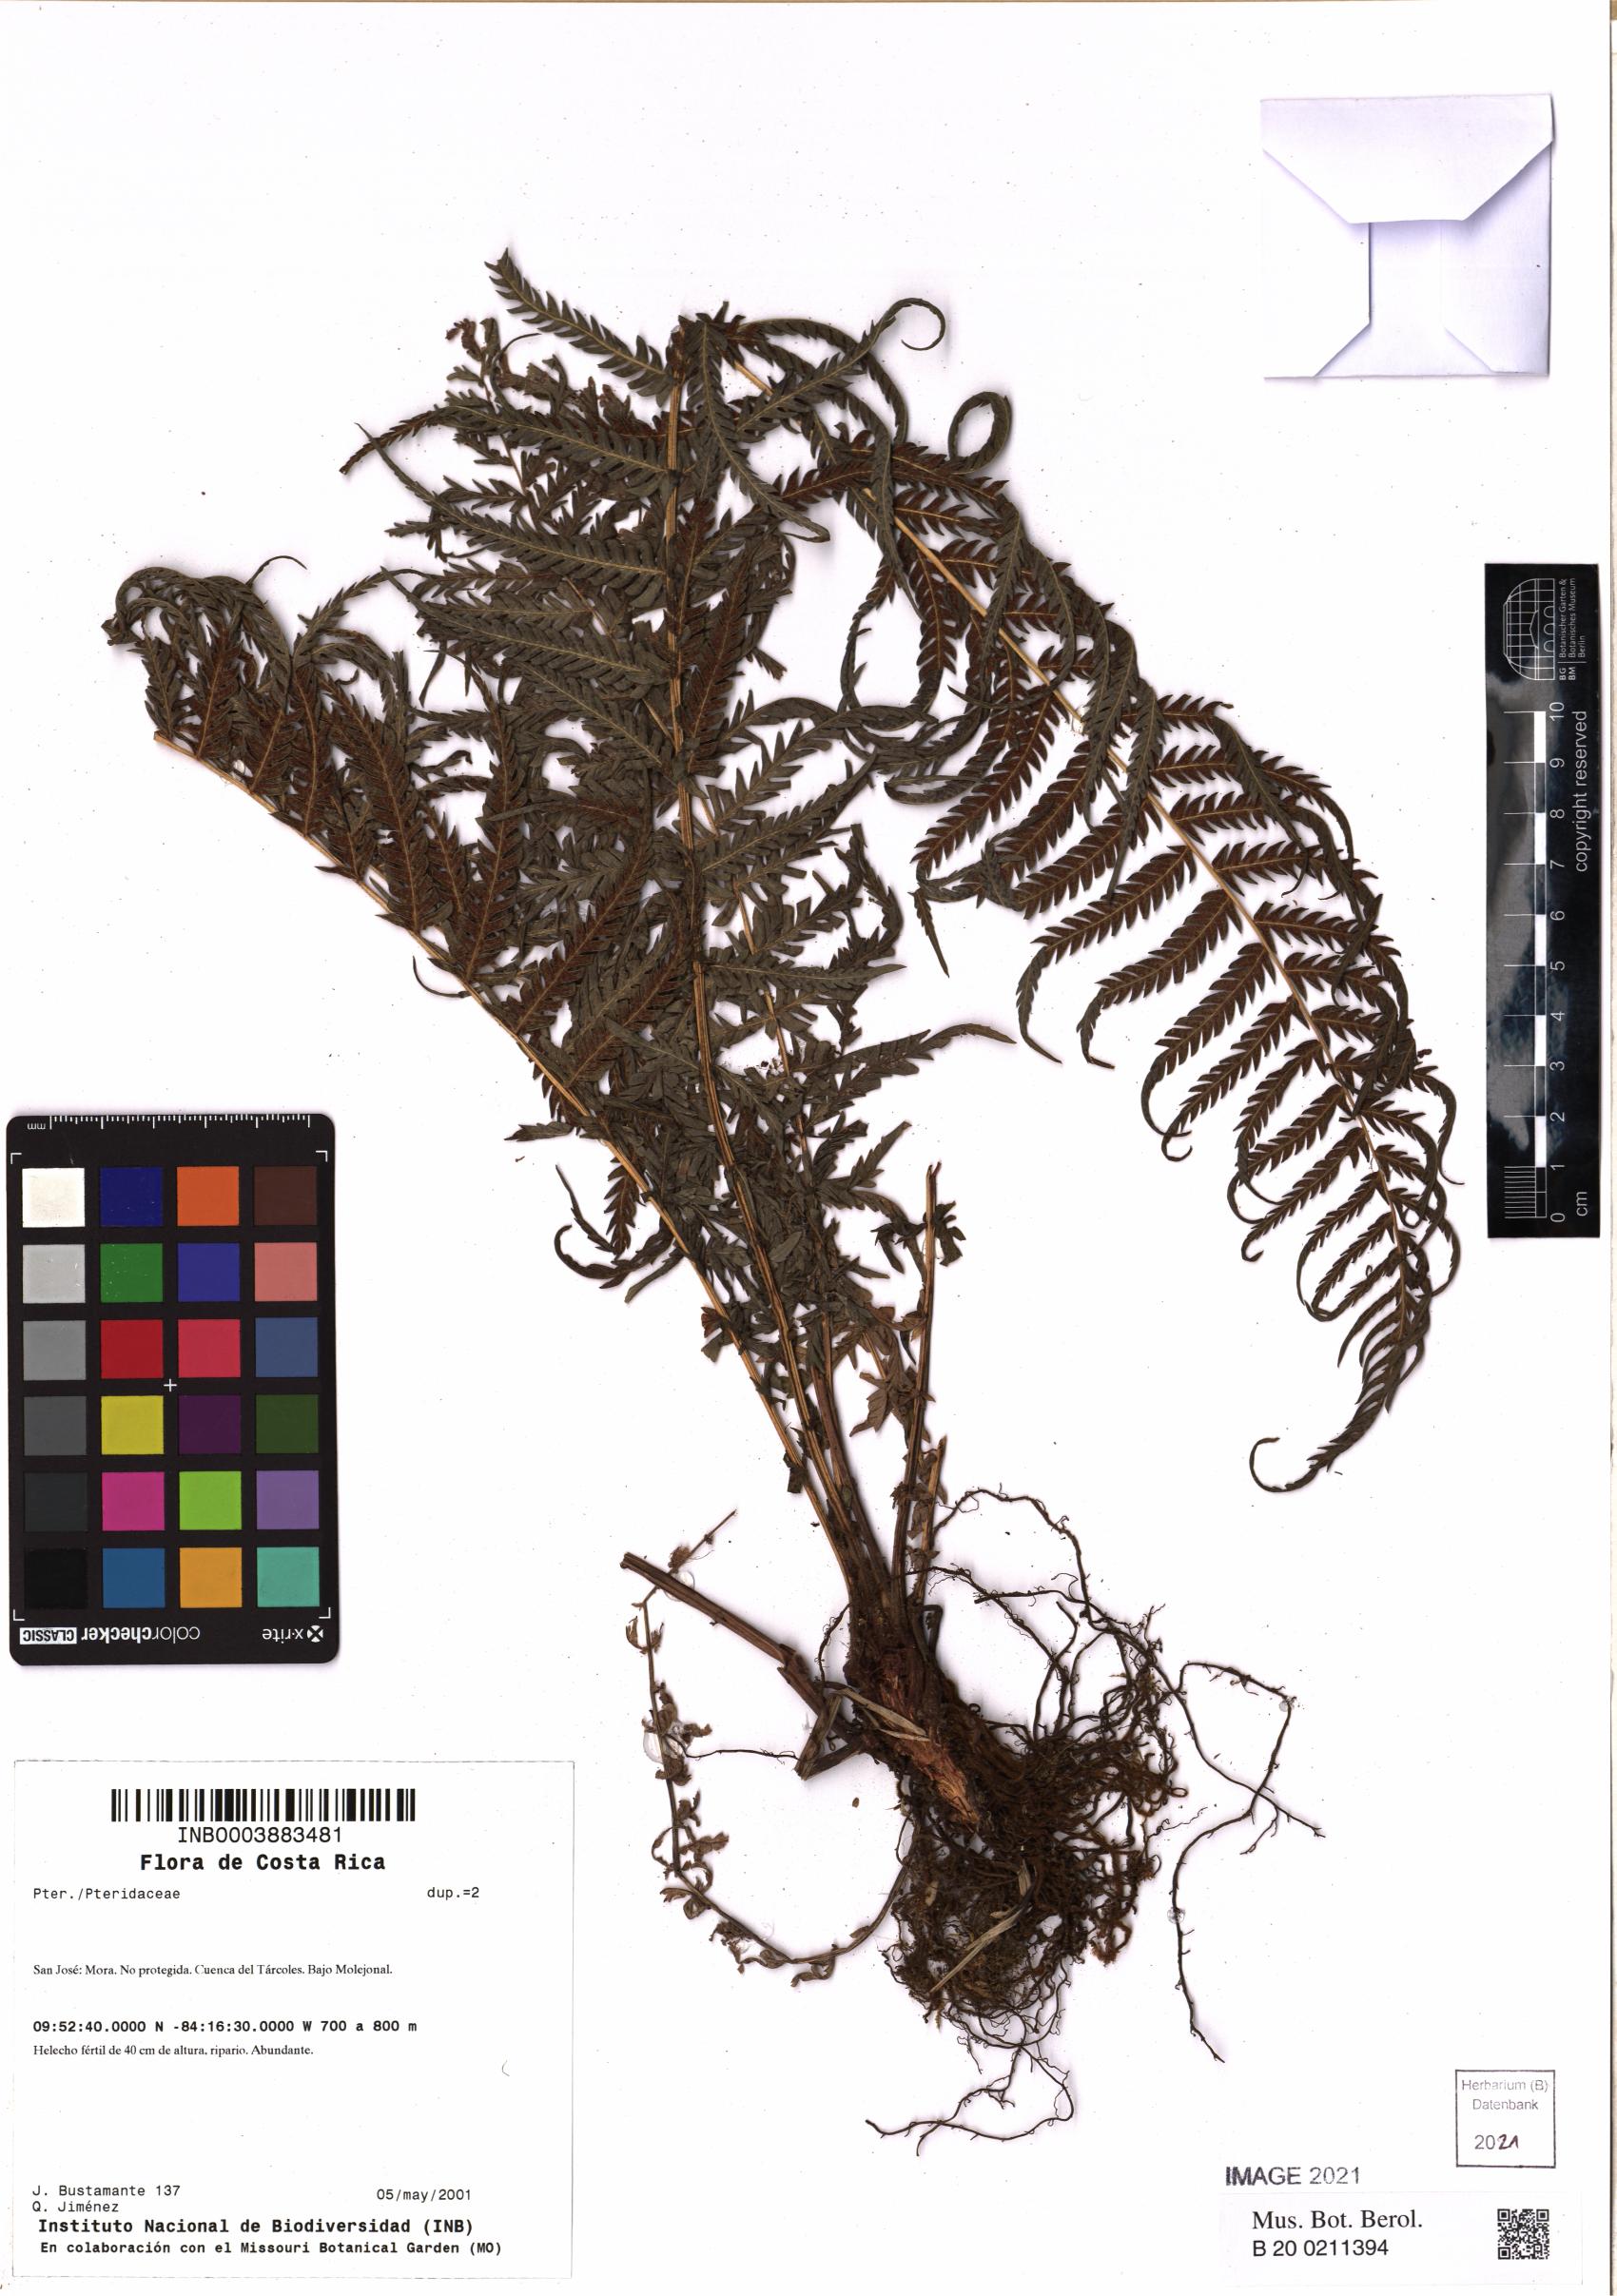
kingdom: Plantae
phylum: Tracheophyta
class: Polypodiopsida
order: Polypodiales
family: Pteridaceae
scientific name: Pteridaceae
